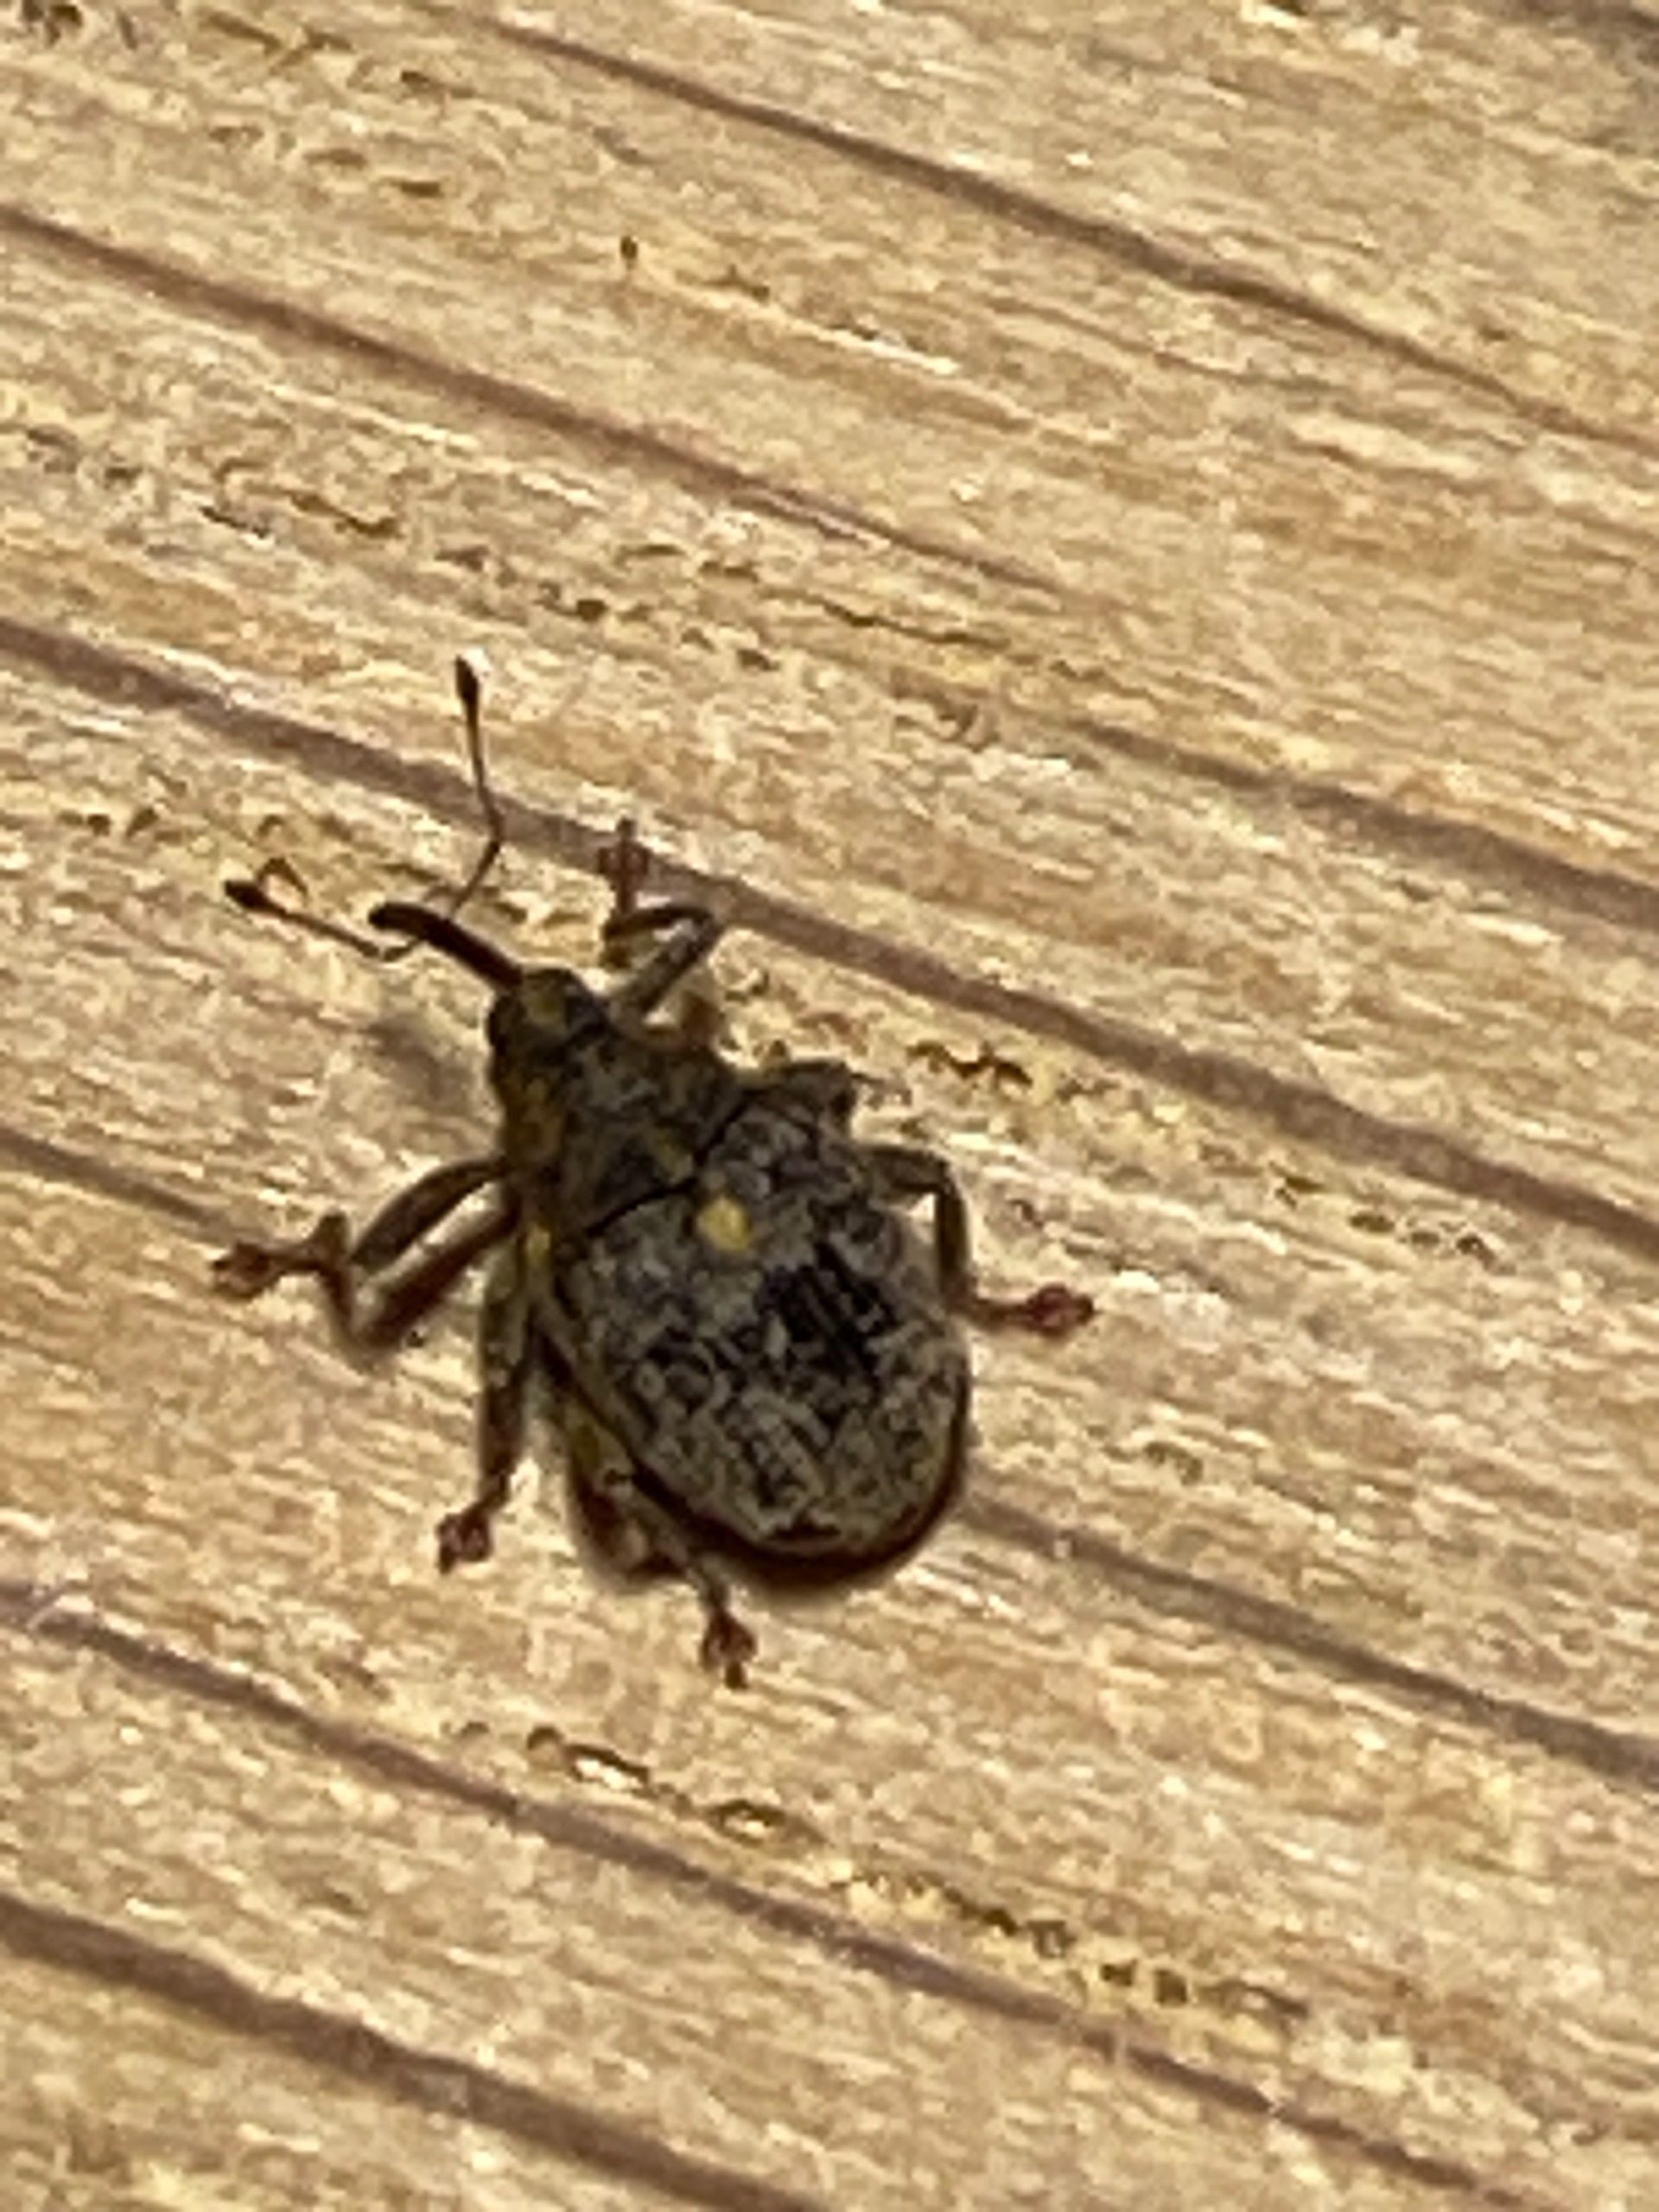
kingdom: Animalia
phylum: Arthropoda
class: Insecta
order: Coleoptera
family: Curculionidae
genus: Ceutorhynchus
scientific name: Ceutorhynchus pallidactylus
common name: Bladribbesnudebille
